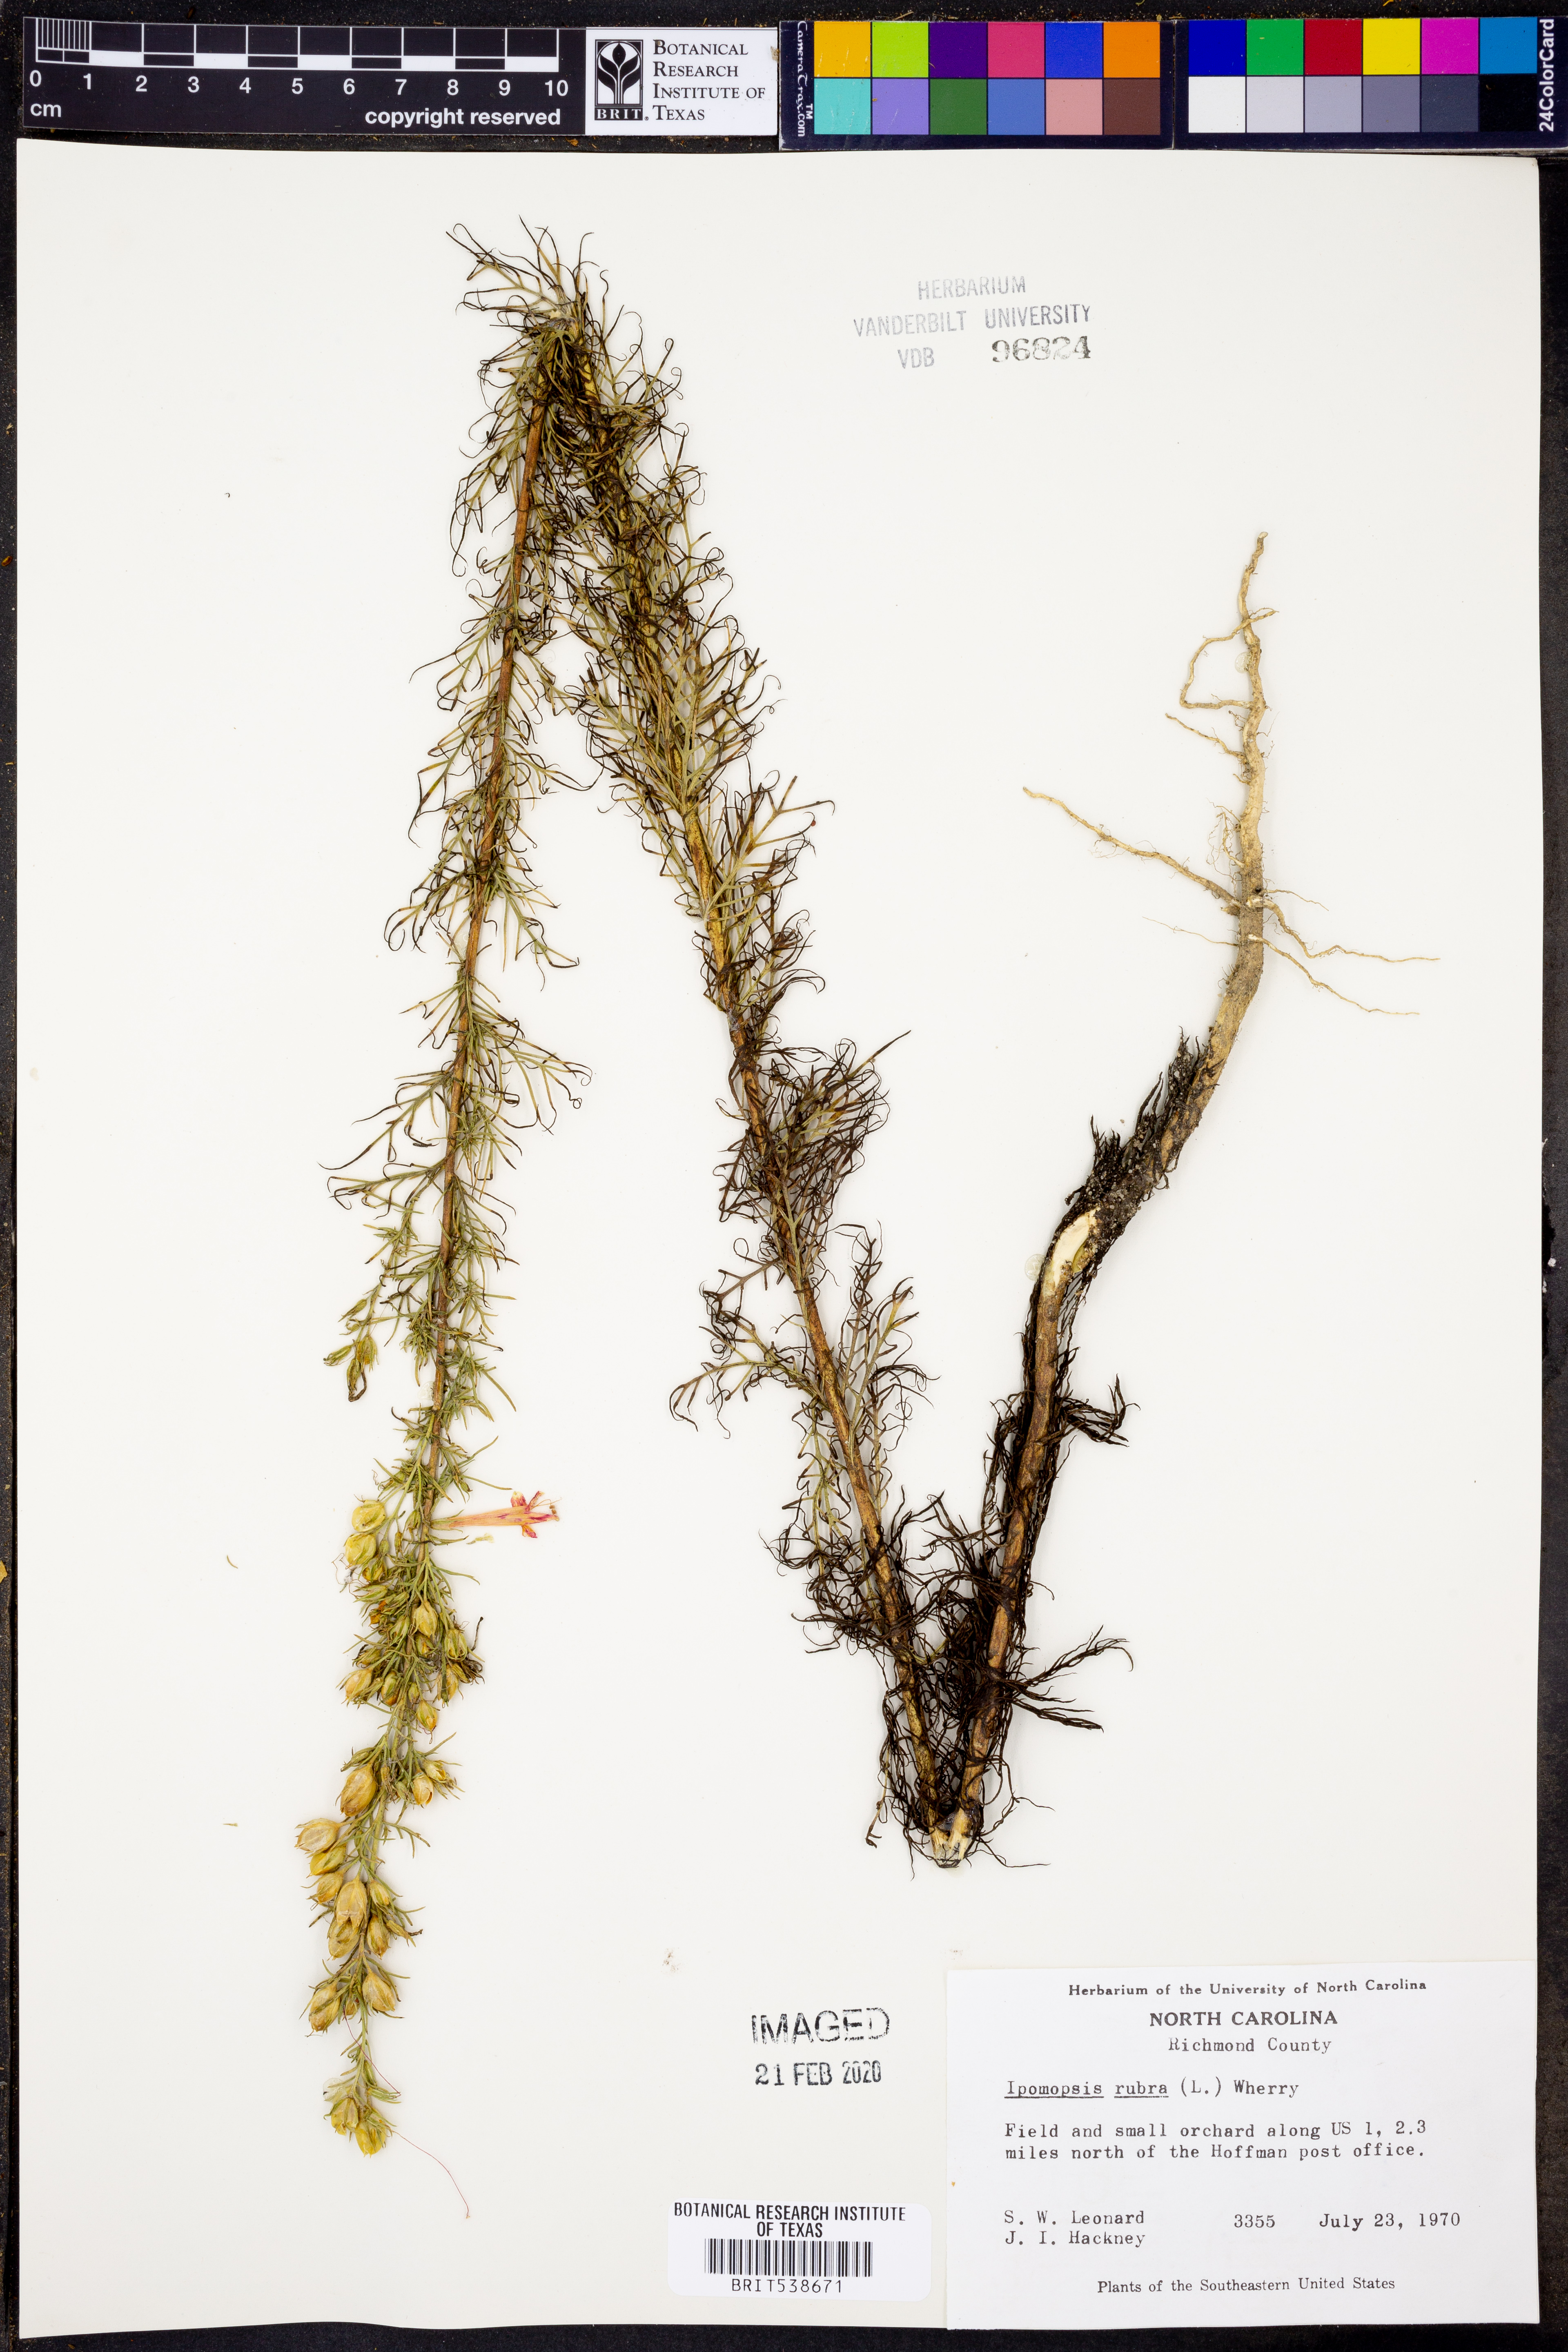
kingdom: Plantae
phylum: Tracheophyta
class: Magnoliopsida
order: Ericales
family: Polemoniaceae
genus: Ipomopsis
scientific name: Ipomopsis rubra
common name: Skyrocket
